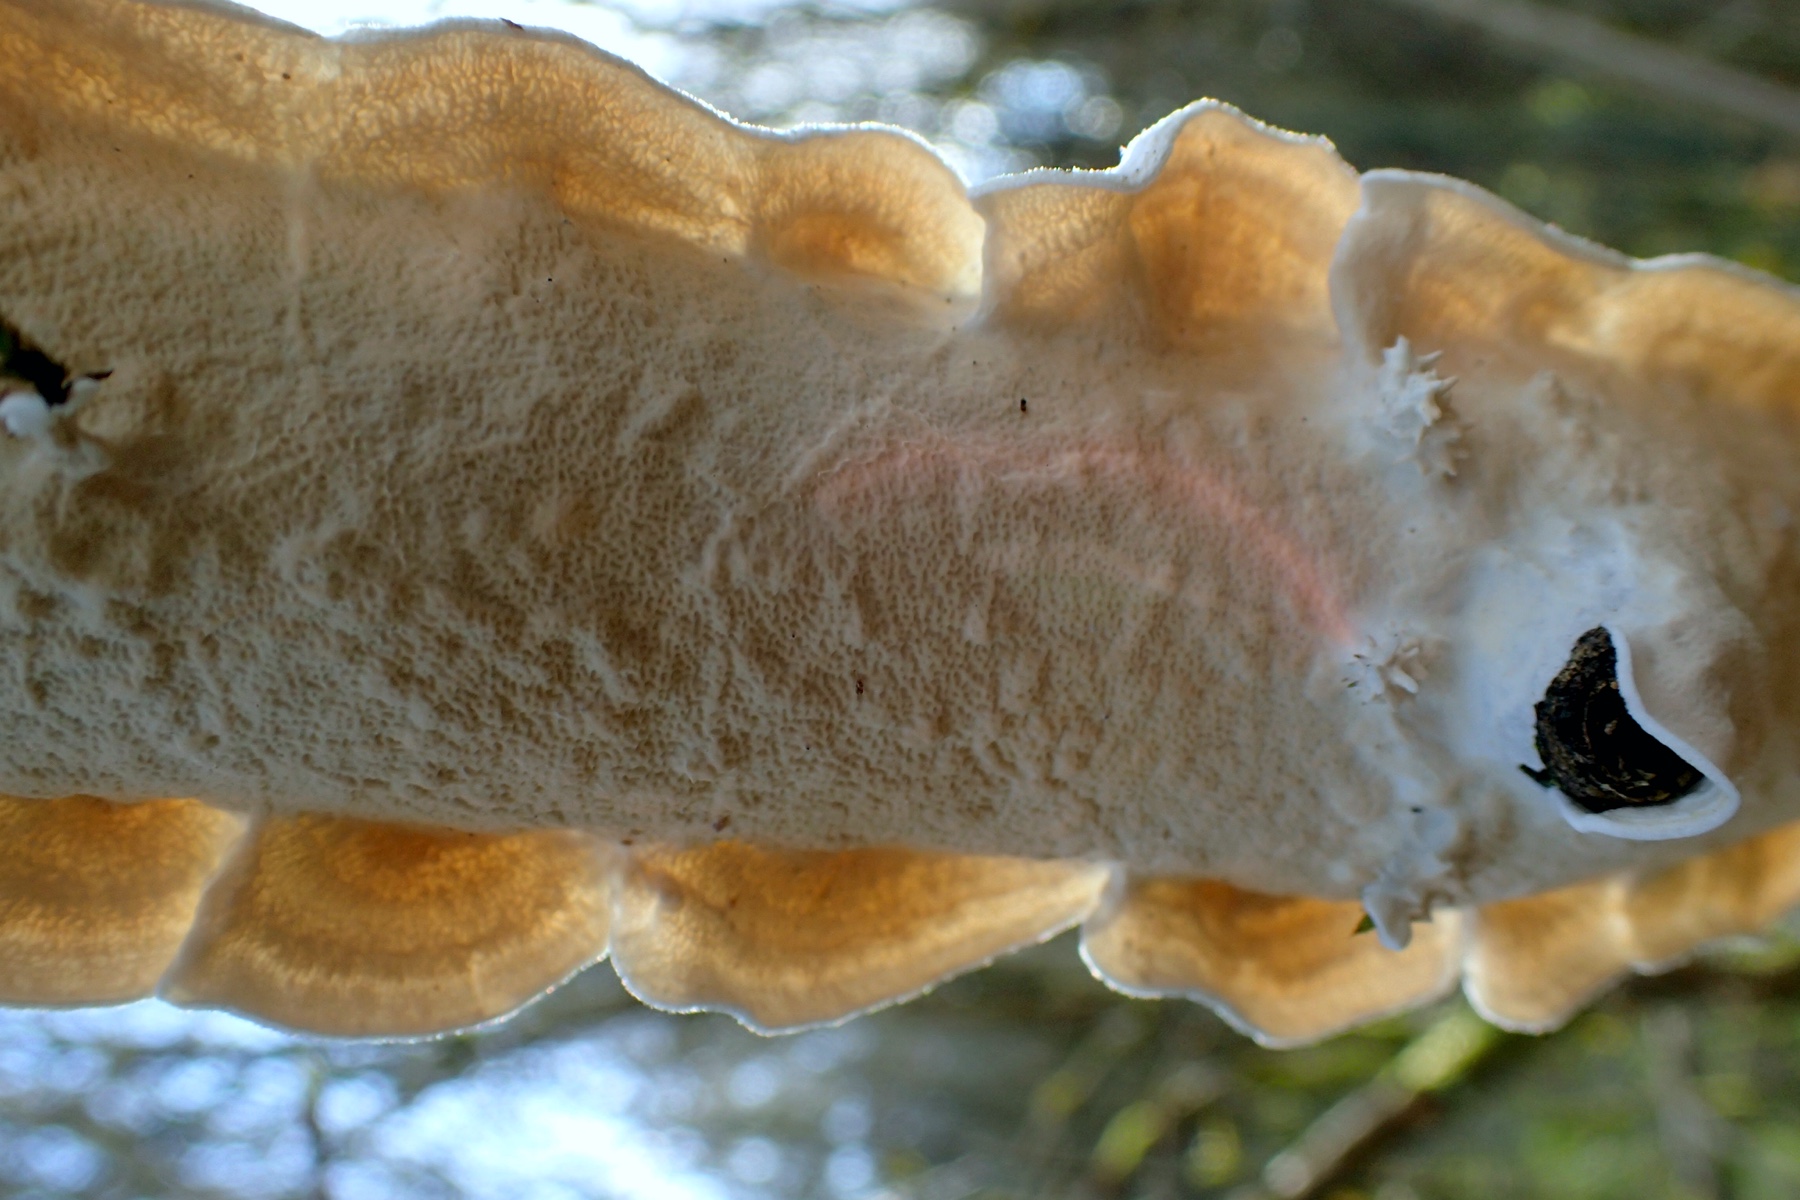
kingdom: Fungi
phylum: Basidiomycota
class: Agaricomycetes
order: Polyporales
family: Irpicaceae
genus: Byssomerulius
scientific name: Byssomerulius corium
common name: læder-åresvamp
